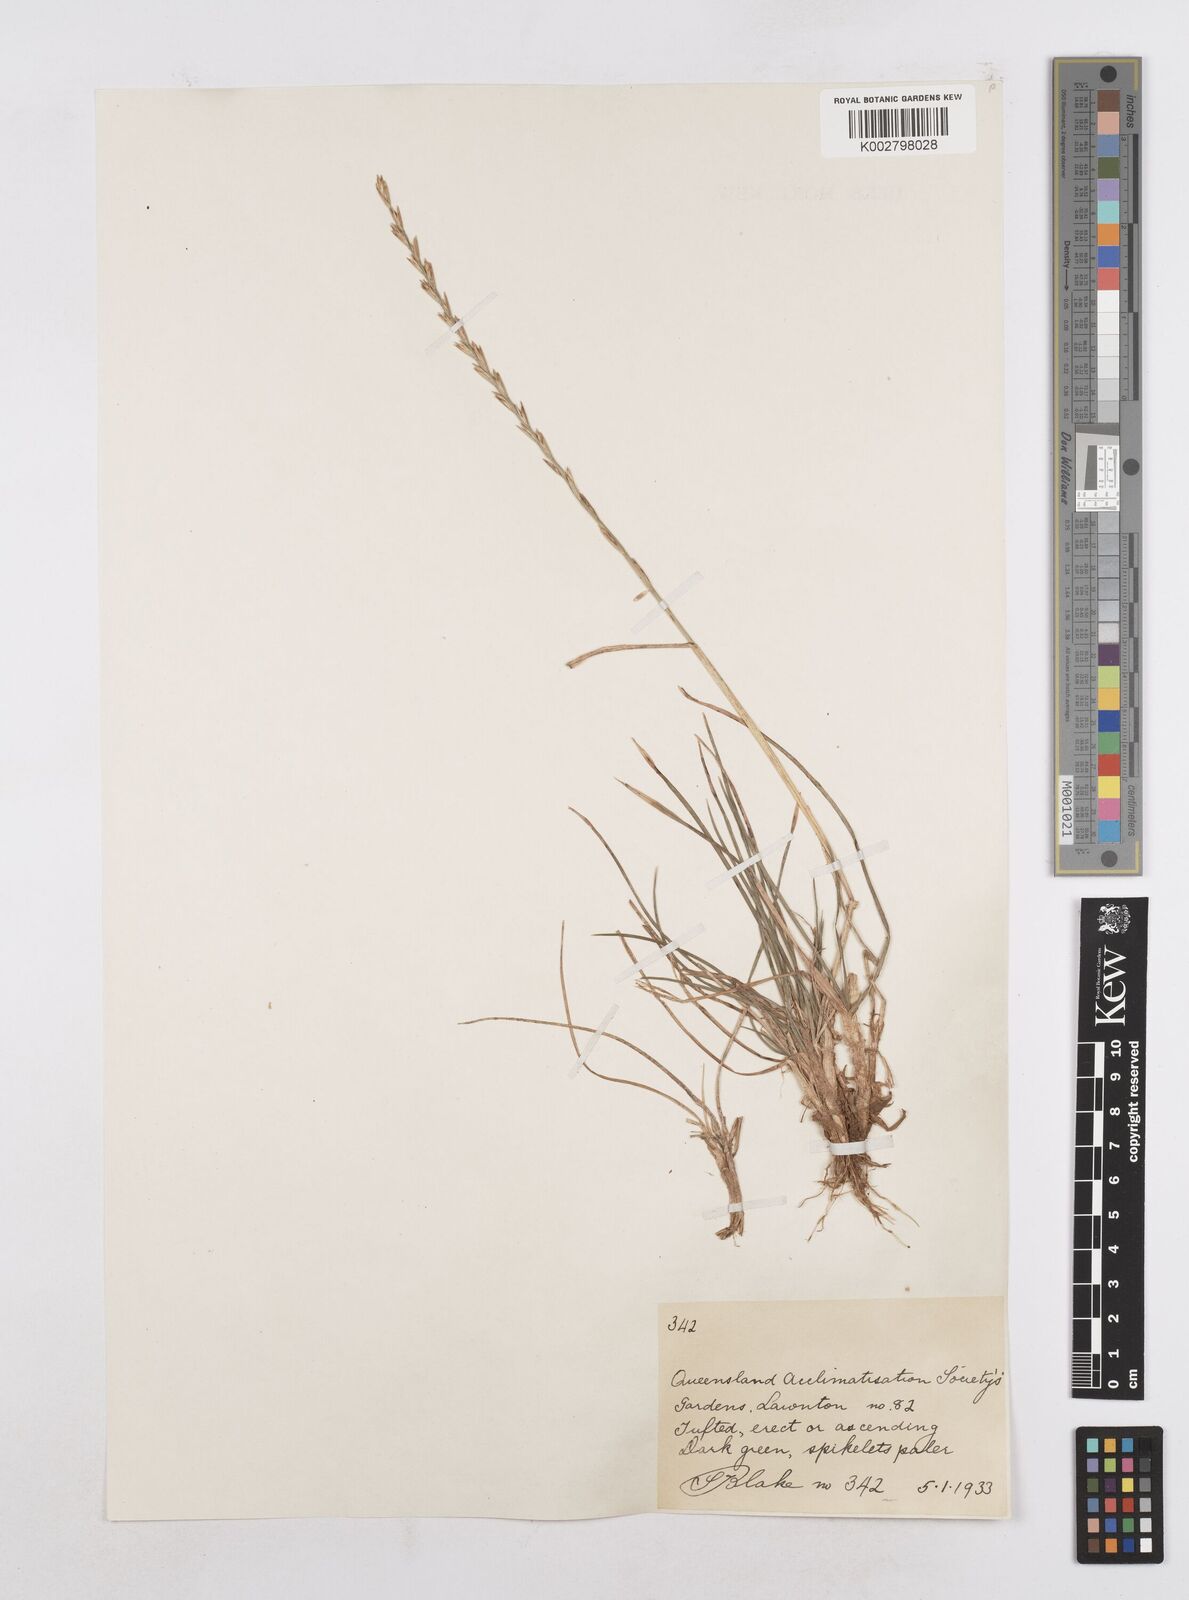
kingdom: Plantae
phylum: Tracheophyta
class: Liliopsida
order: Poales
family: Poaceae
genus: Lolium
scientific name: Lolium perenne
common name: Perennial ryegrass
